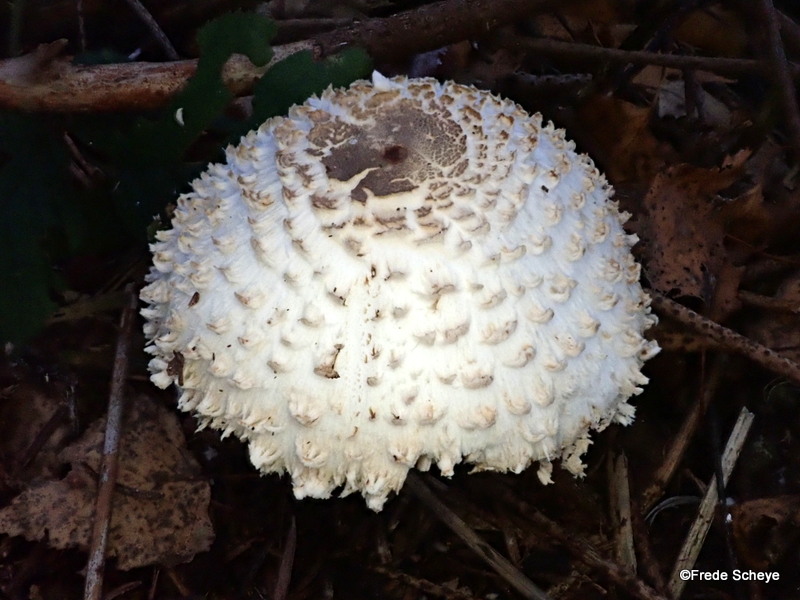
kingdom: Fungi
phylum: Basidiomycota
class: Agaricomycetes
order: Agaricales
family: Agaricaceae
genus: Leucoagaricus
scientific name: Leucoagaricus nympharum
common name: gran-silkehat
